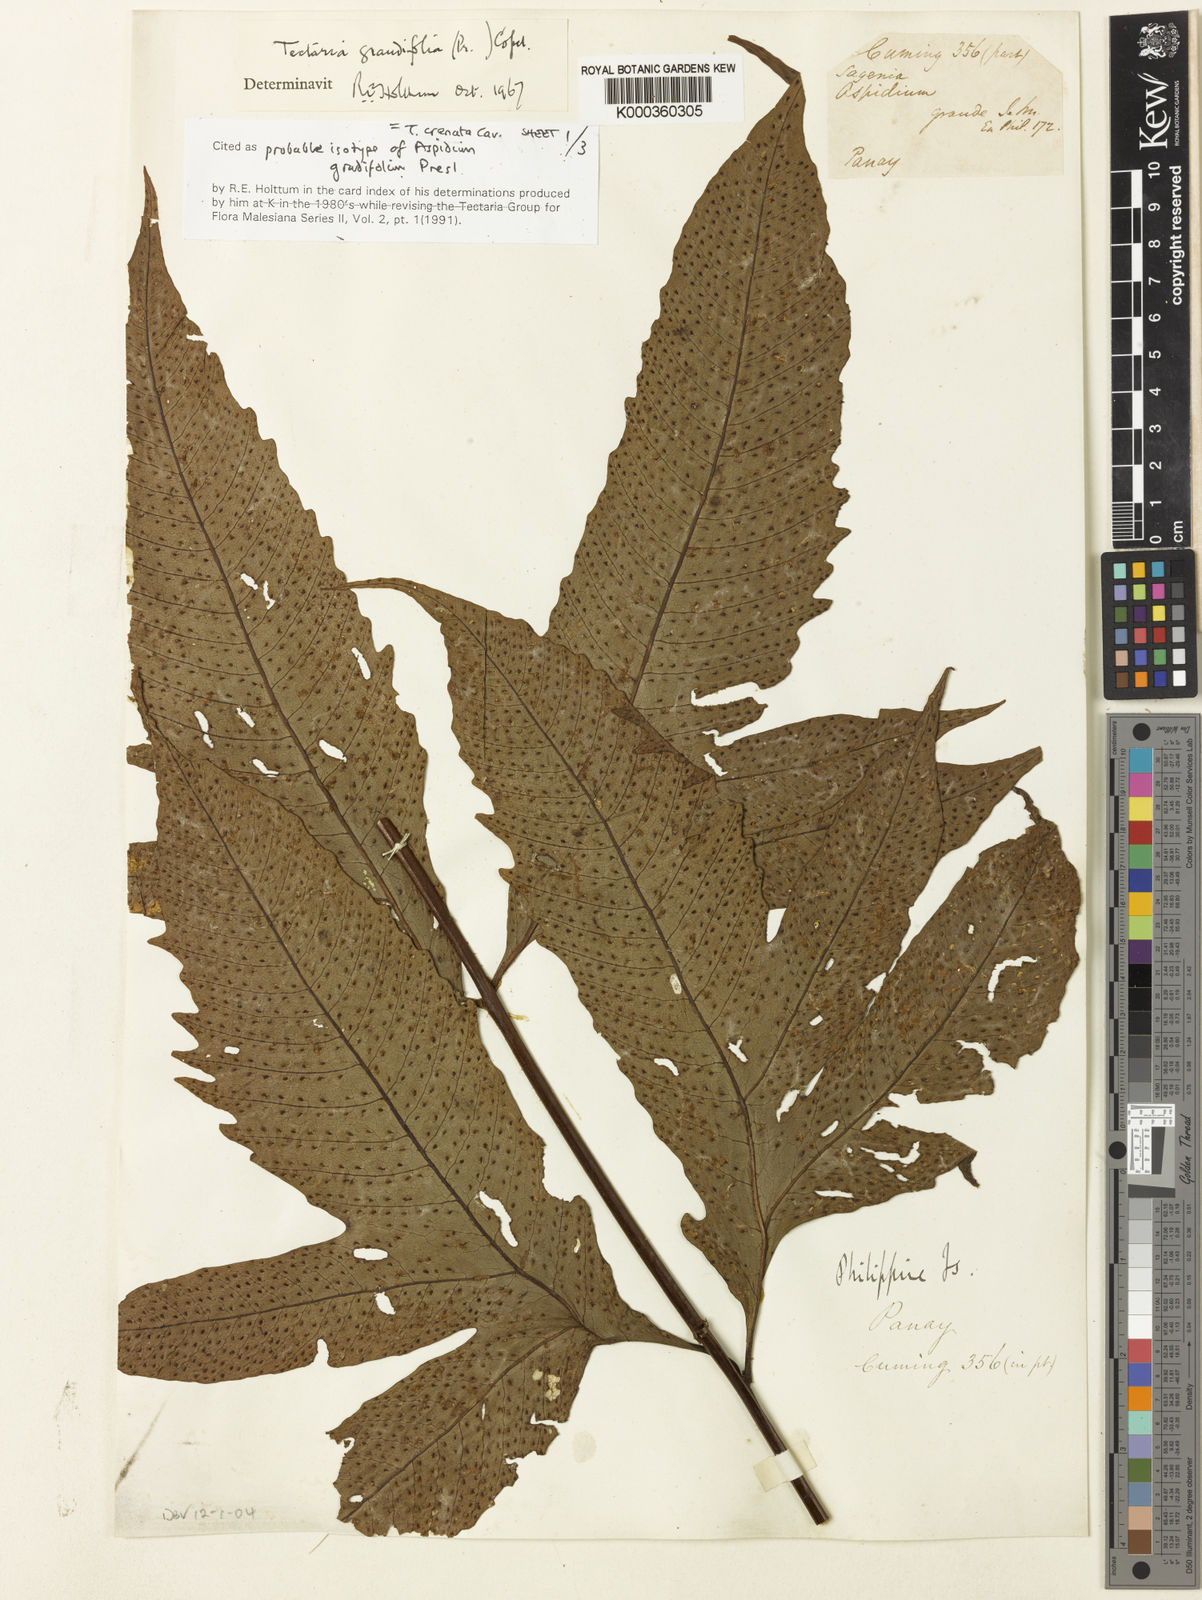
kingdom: Plantae
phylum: Tracheophyta
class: Polypodiopsida
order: Polypodiales
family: Tectariaceae
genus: Tectaria
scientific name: Tectaria crenata
